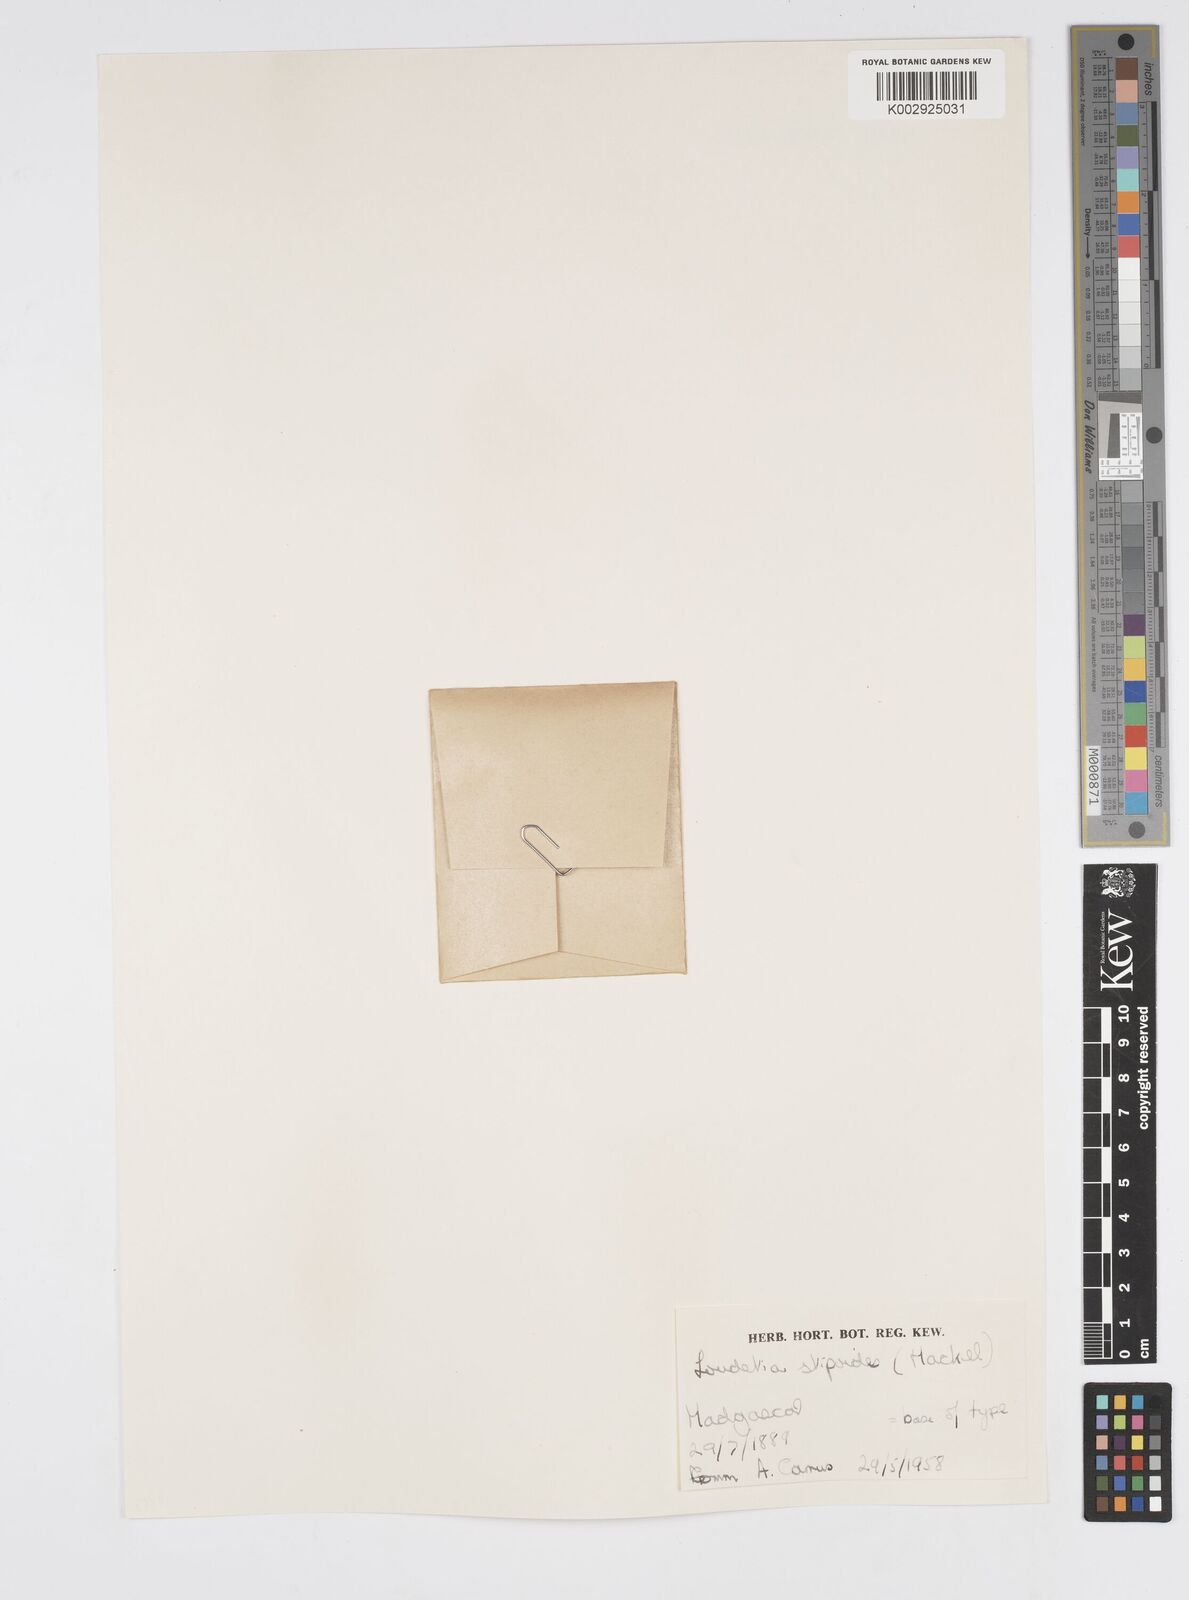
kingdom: Plantae
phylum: Tracheophyta
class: Liliopsida
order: Poales
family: Poaceae
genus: Loudetia
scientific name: Loudetia
